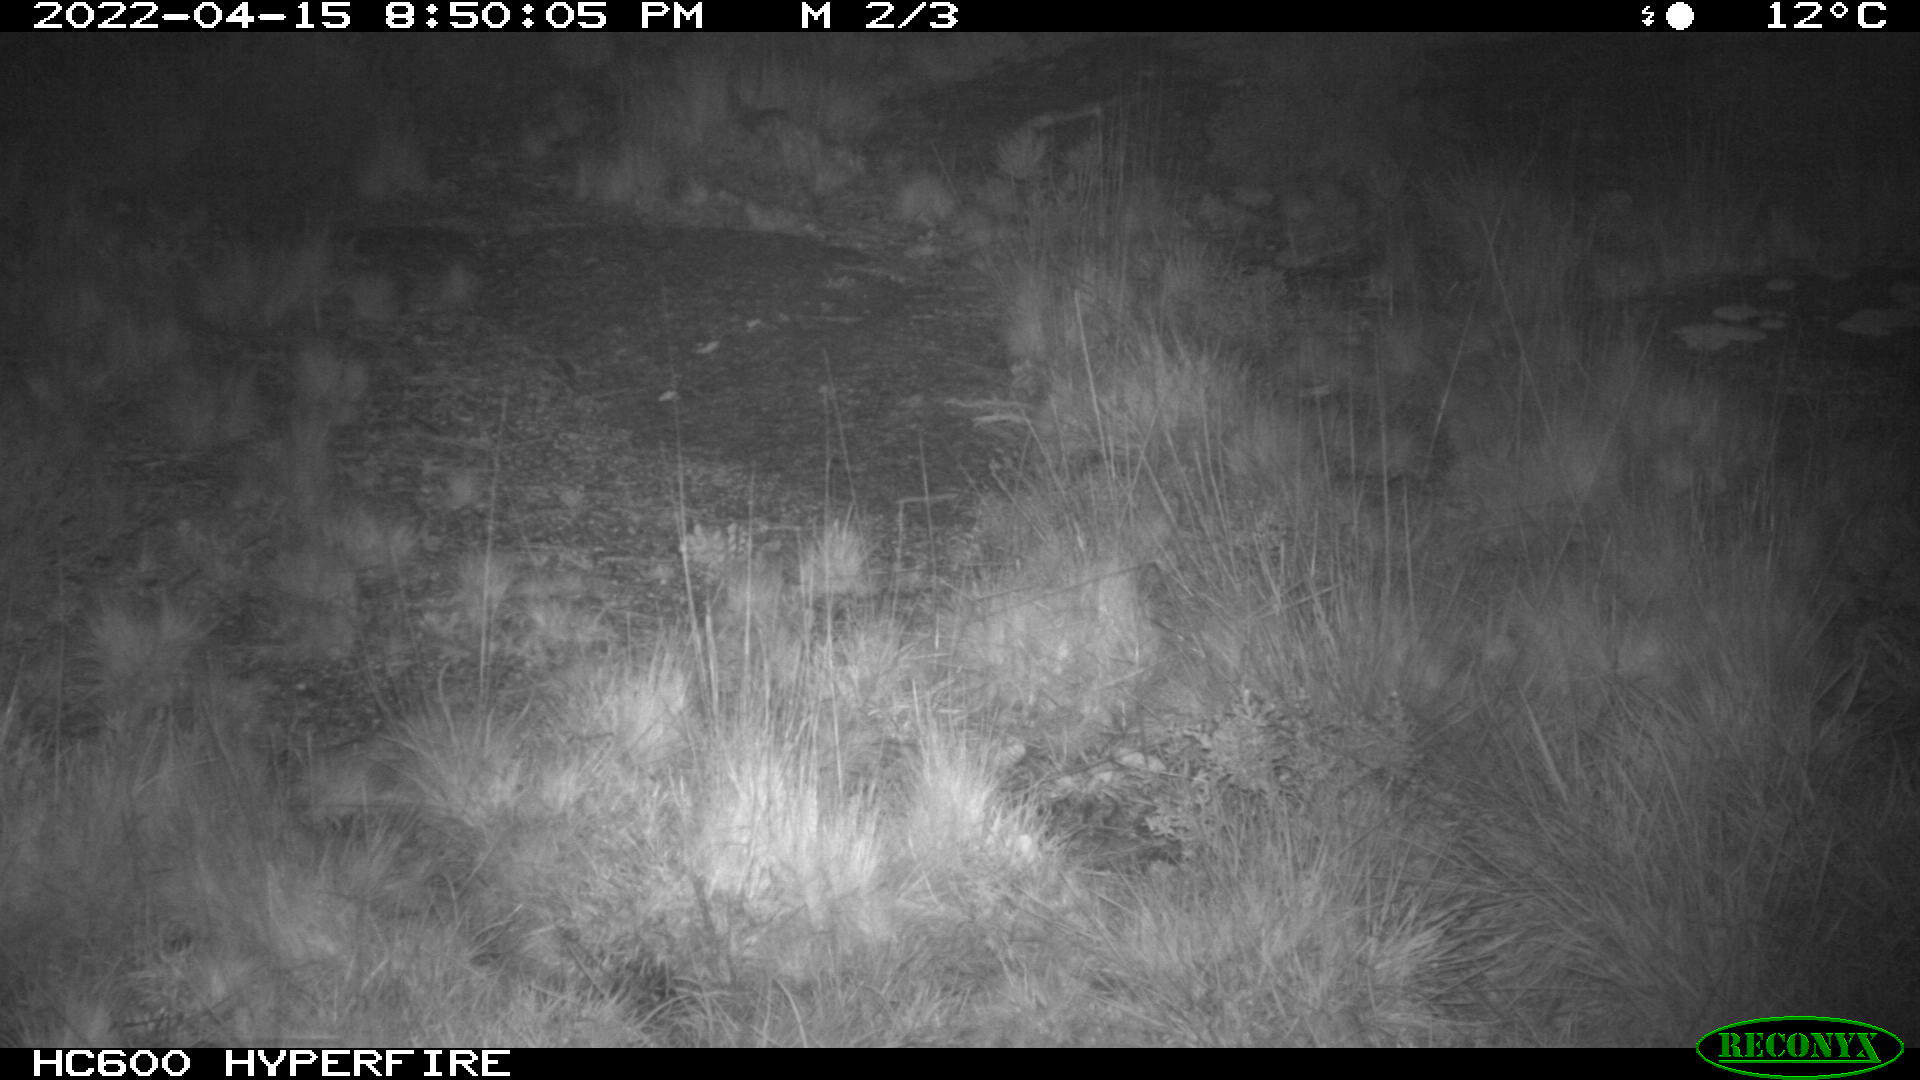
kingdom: Animalia
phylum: Chordata
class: Mammalia
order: Artiodactyla
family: Cervidae
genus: Capreolus
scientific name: Capreolus capreolus
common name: Western roe deer
